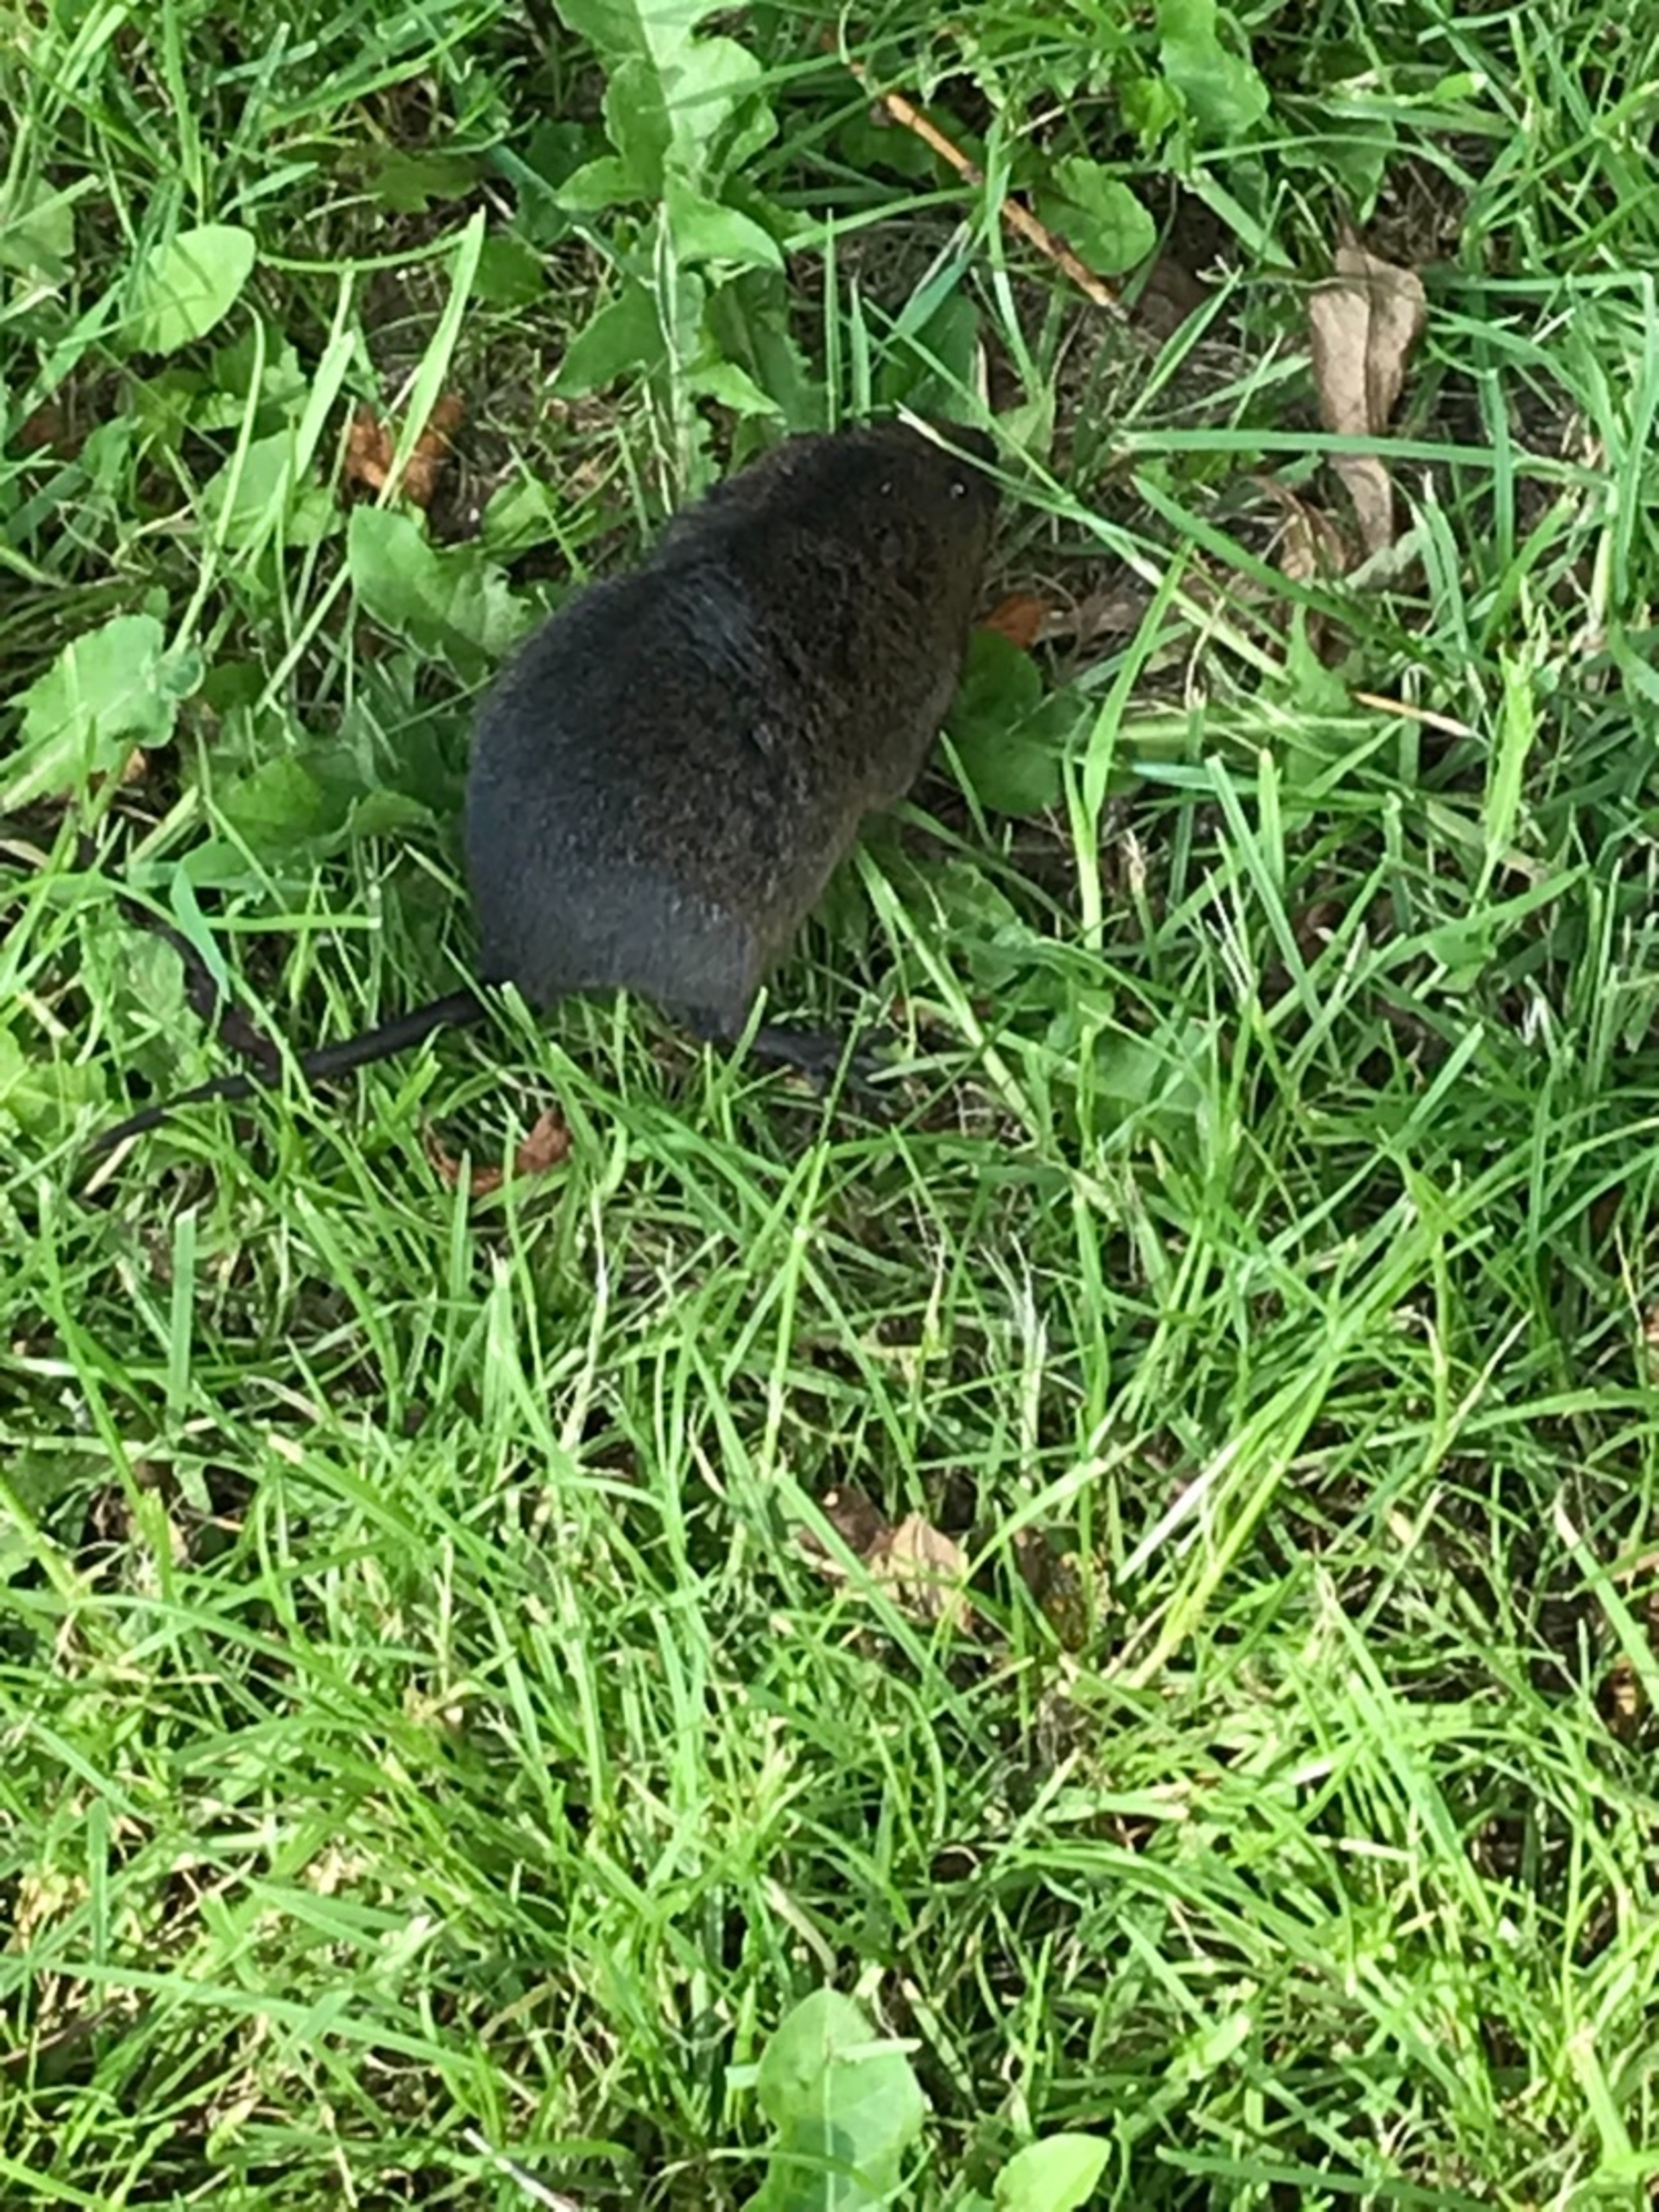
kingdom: Animalia
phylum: Chordata
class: Mammalia
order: Rodentia
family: Cricetidae
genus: Arvicola
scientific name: Arvicola amphibius
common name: Mosegris
